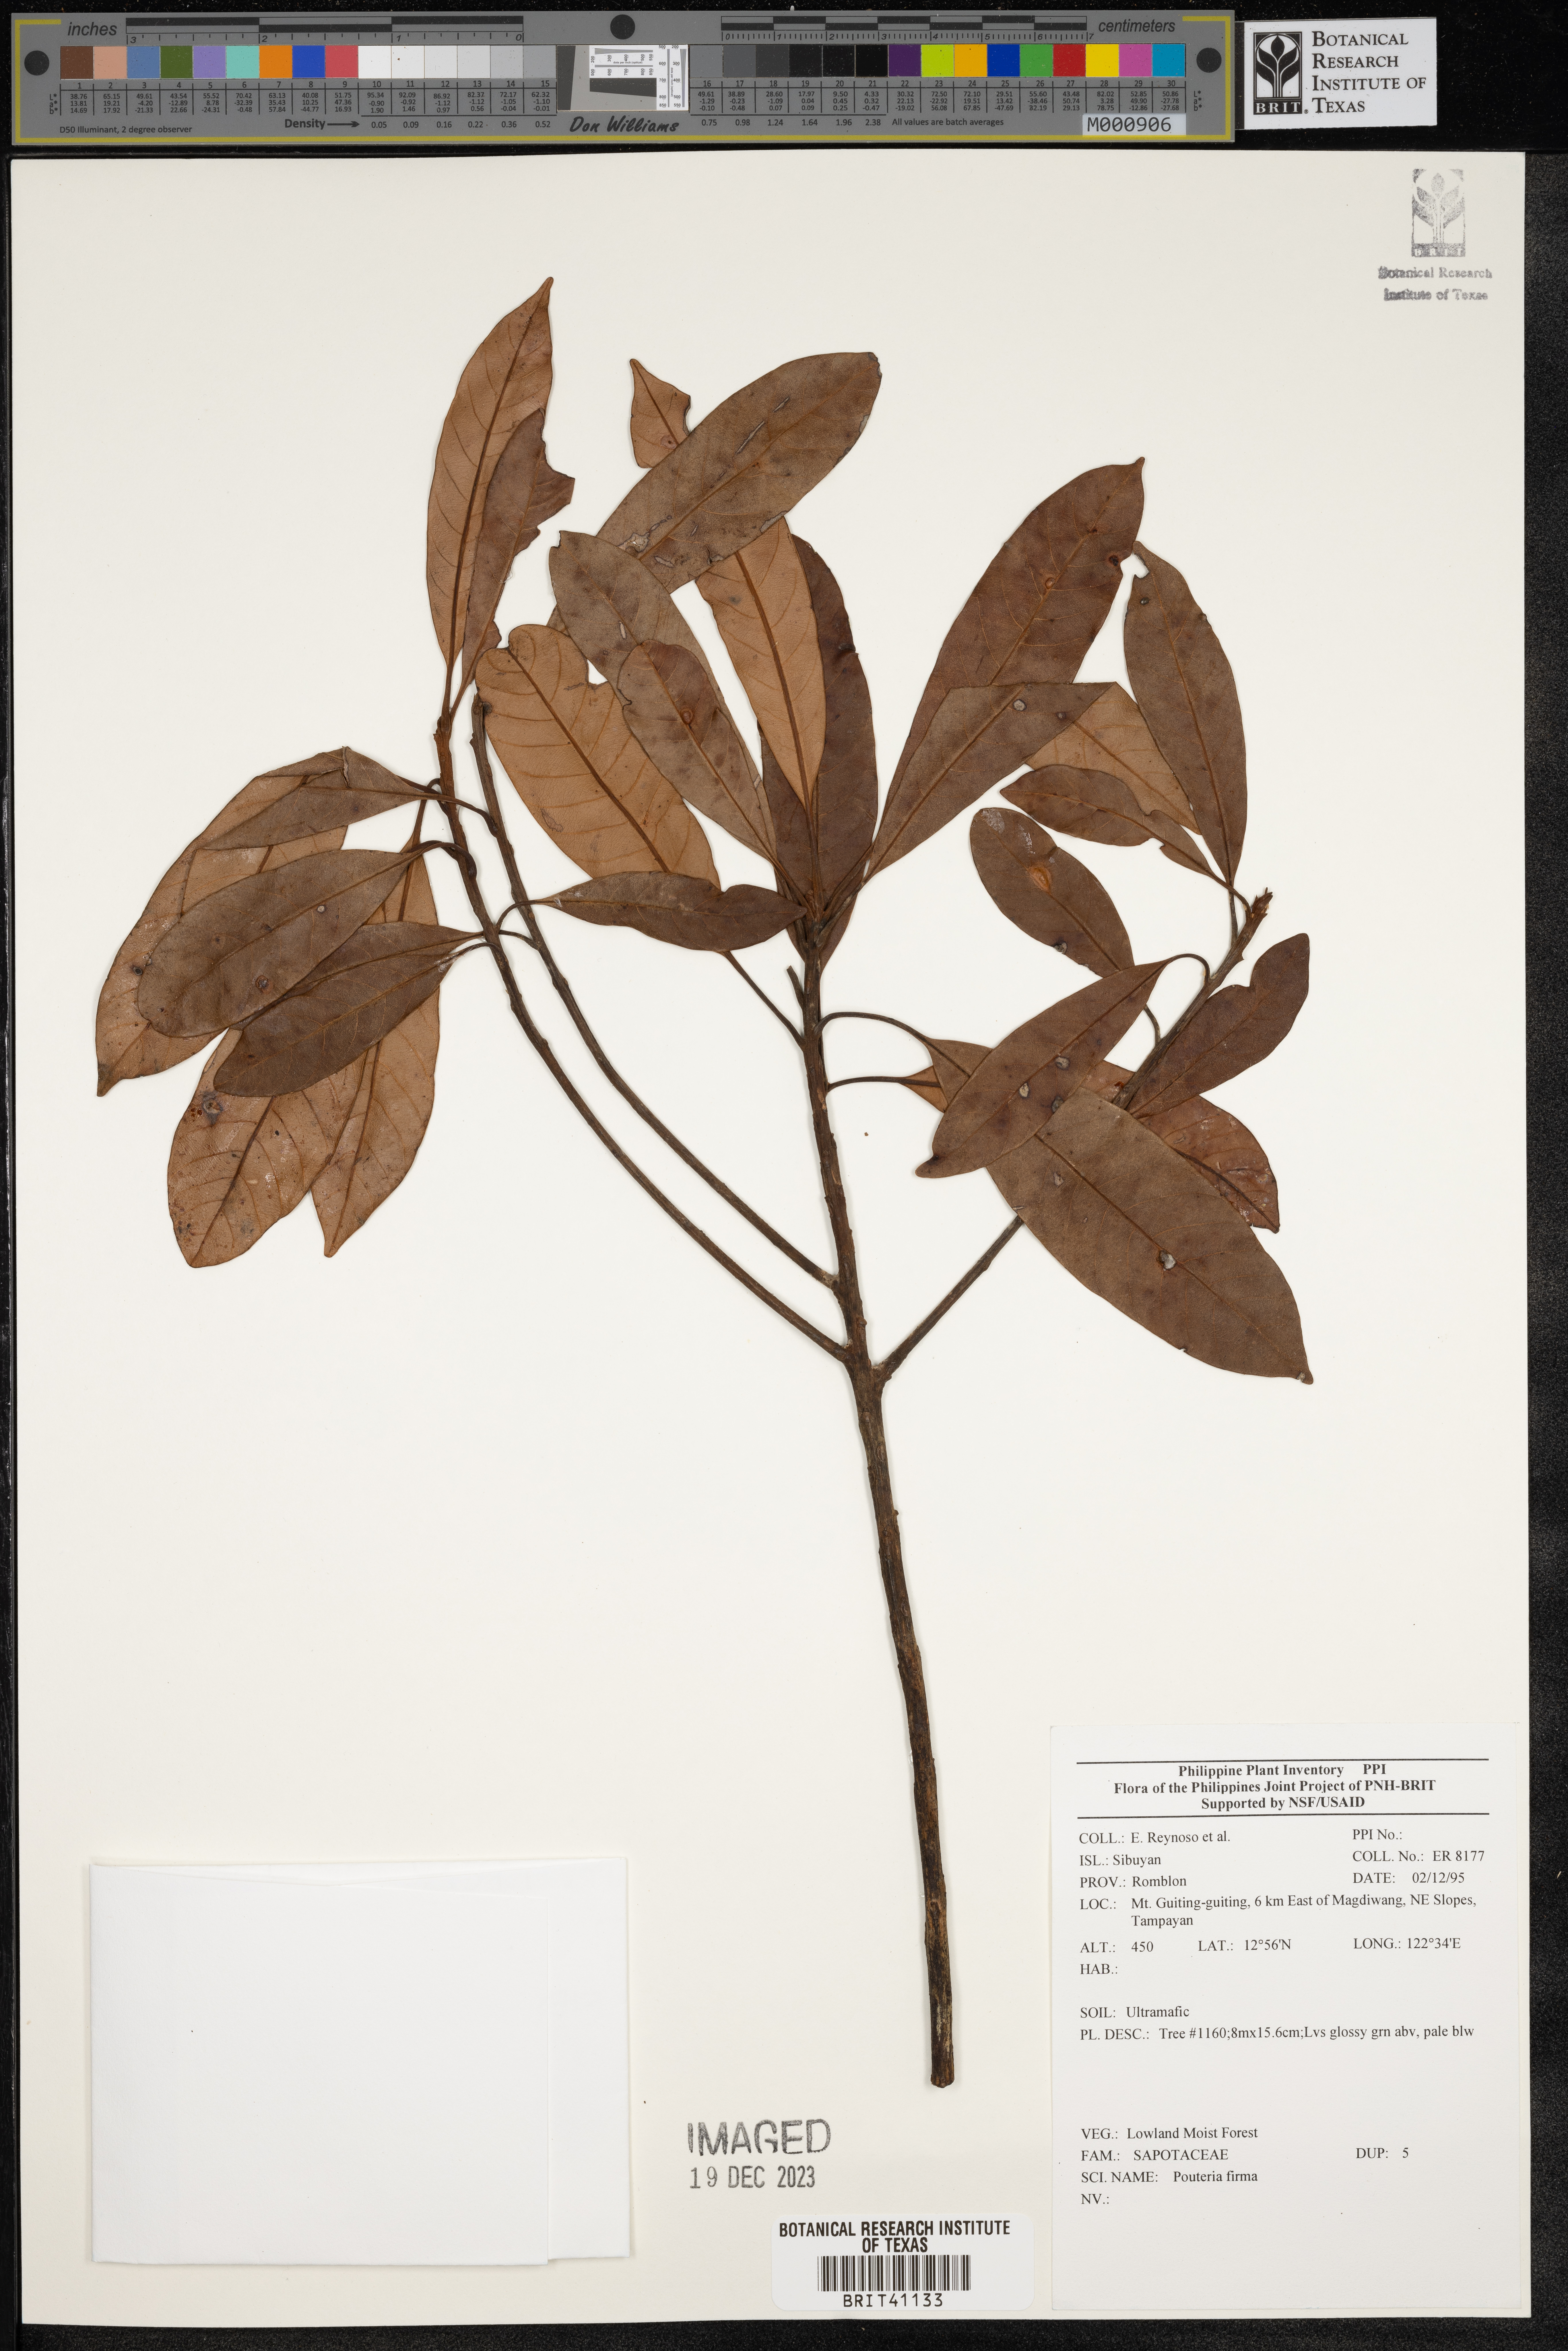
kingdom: Plantae
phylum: Tracheophyta
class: Magnoliopsida
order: Ericales
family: Sapotaceae
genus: Pouteria
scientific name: Pouteria
